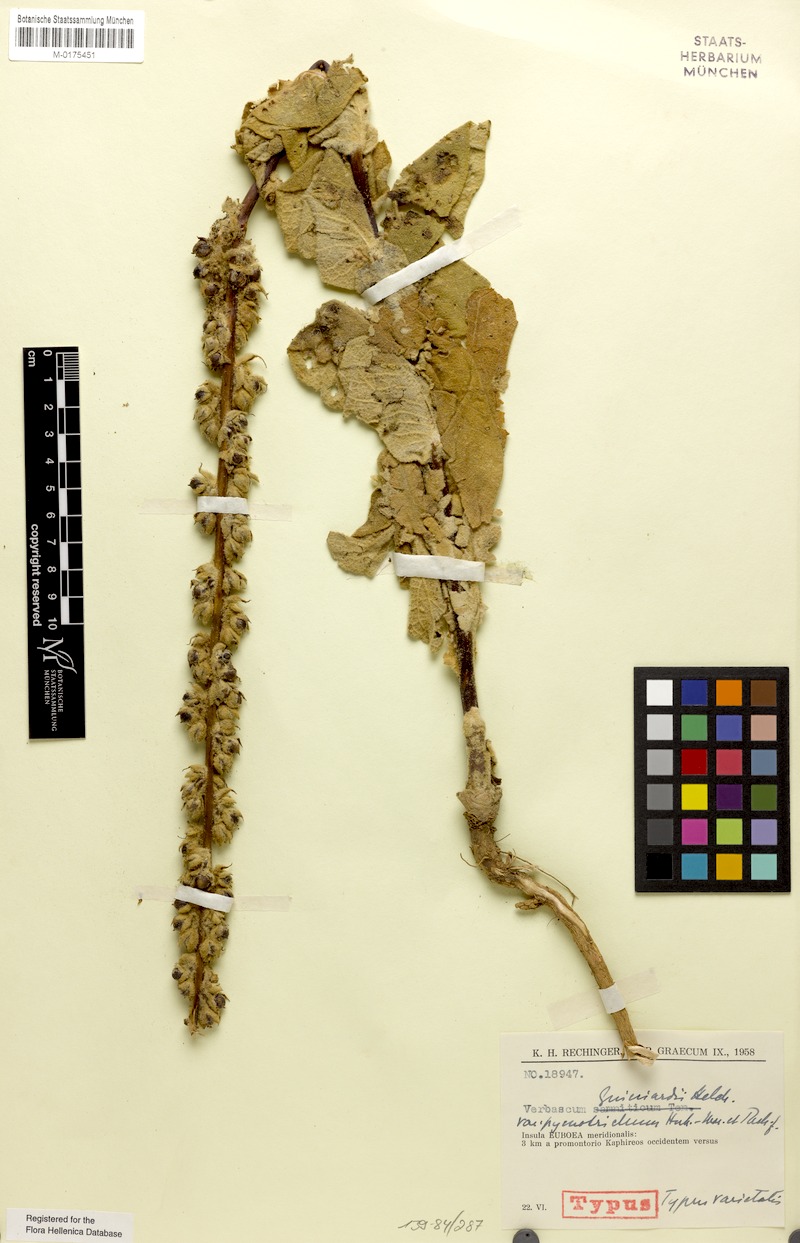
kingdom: Plantae
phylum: Tracheophyta
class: Magnoliopsida
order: Lamiales
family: Scrophulariaceae
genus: Verbascum
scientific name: Verbascum guicciardii
